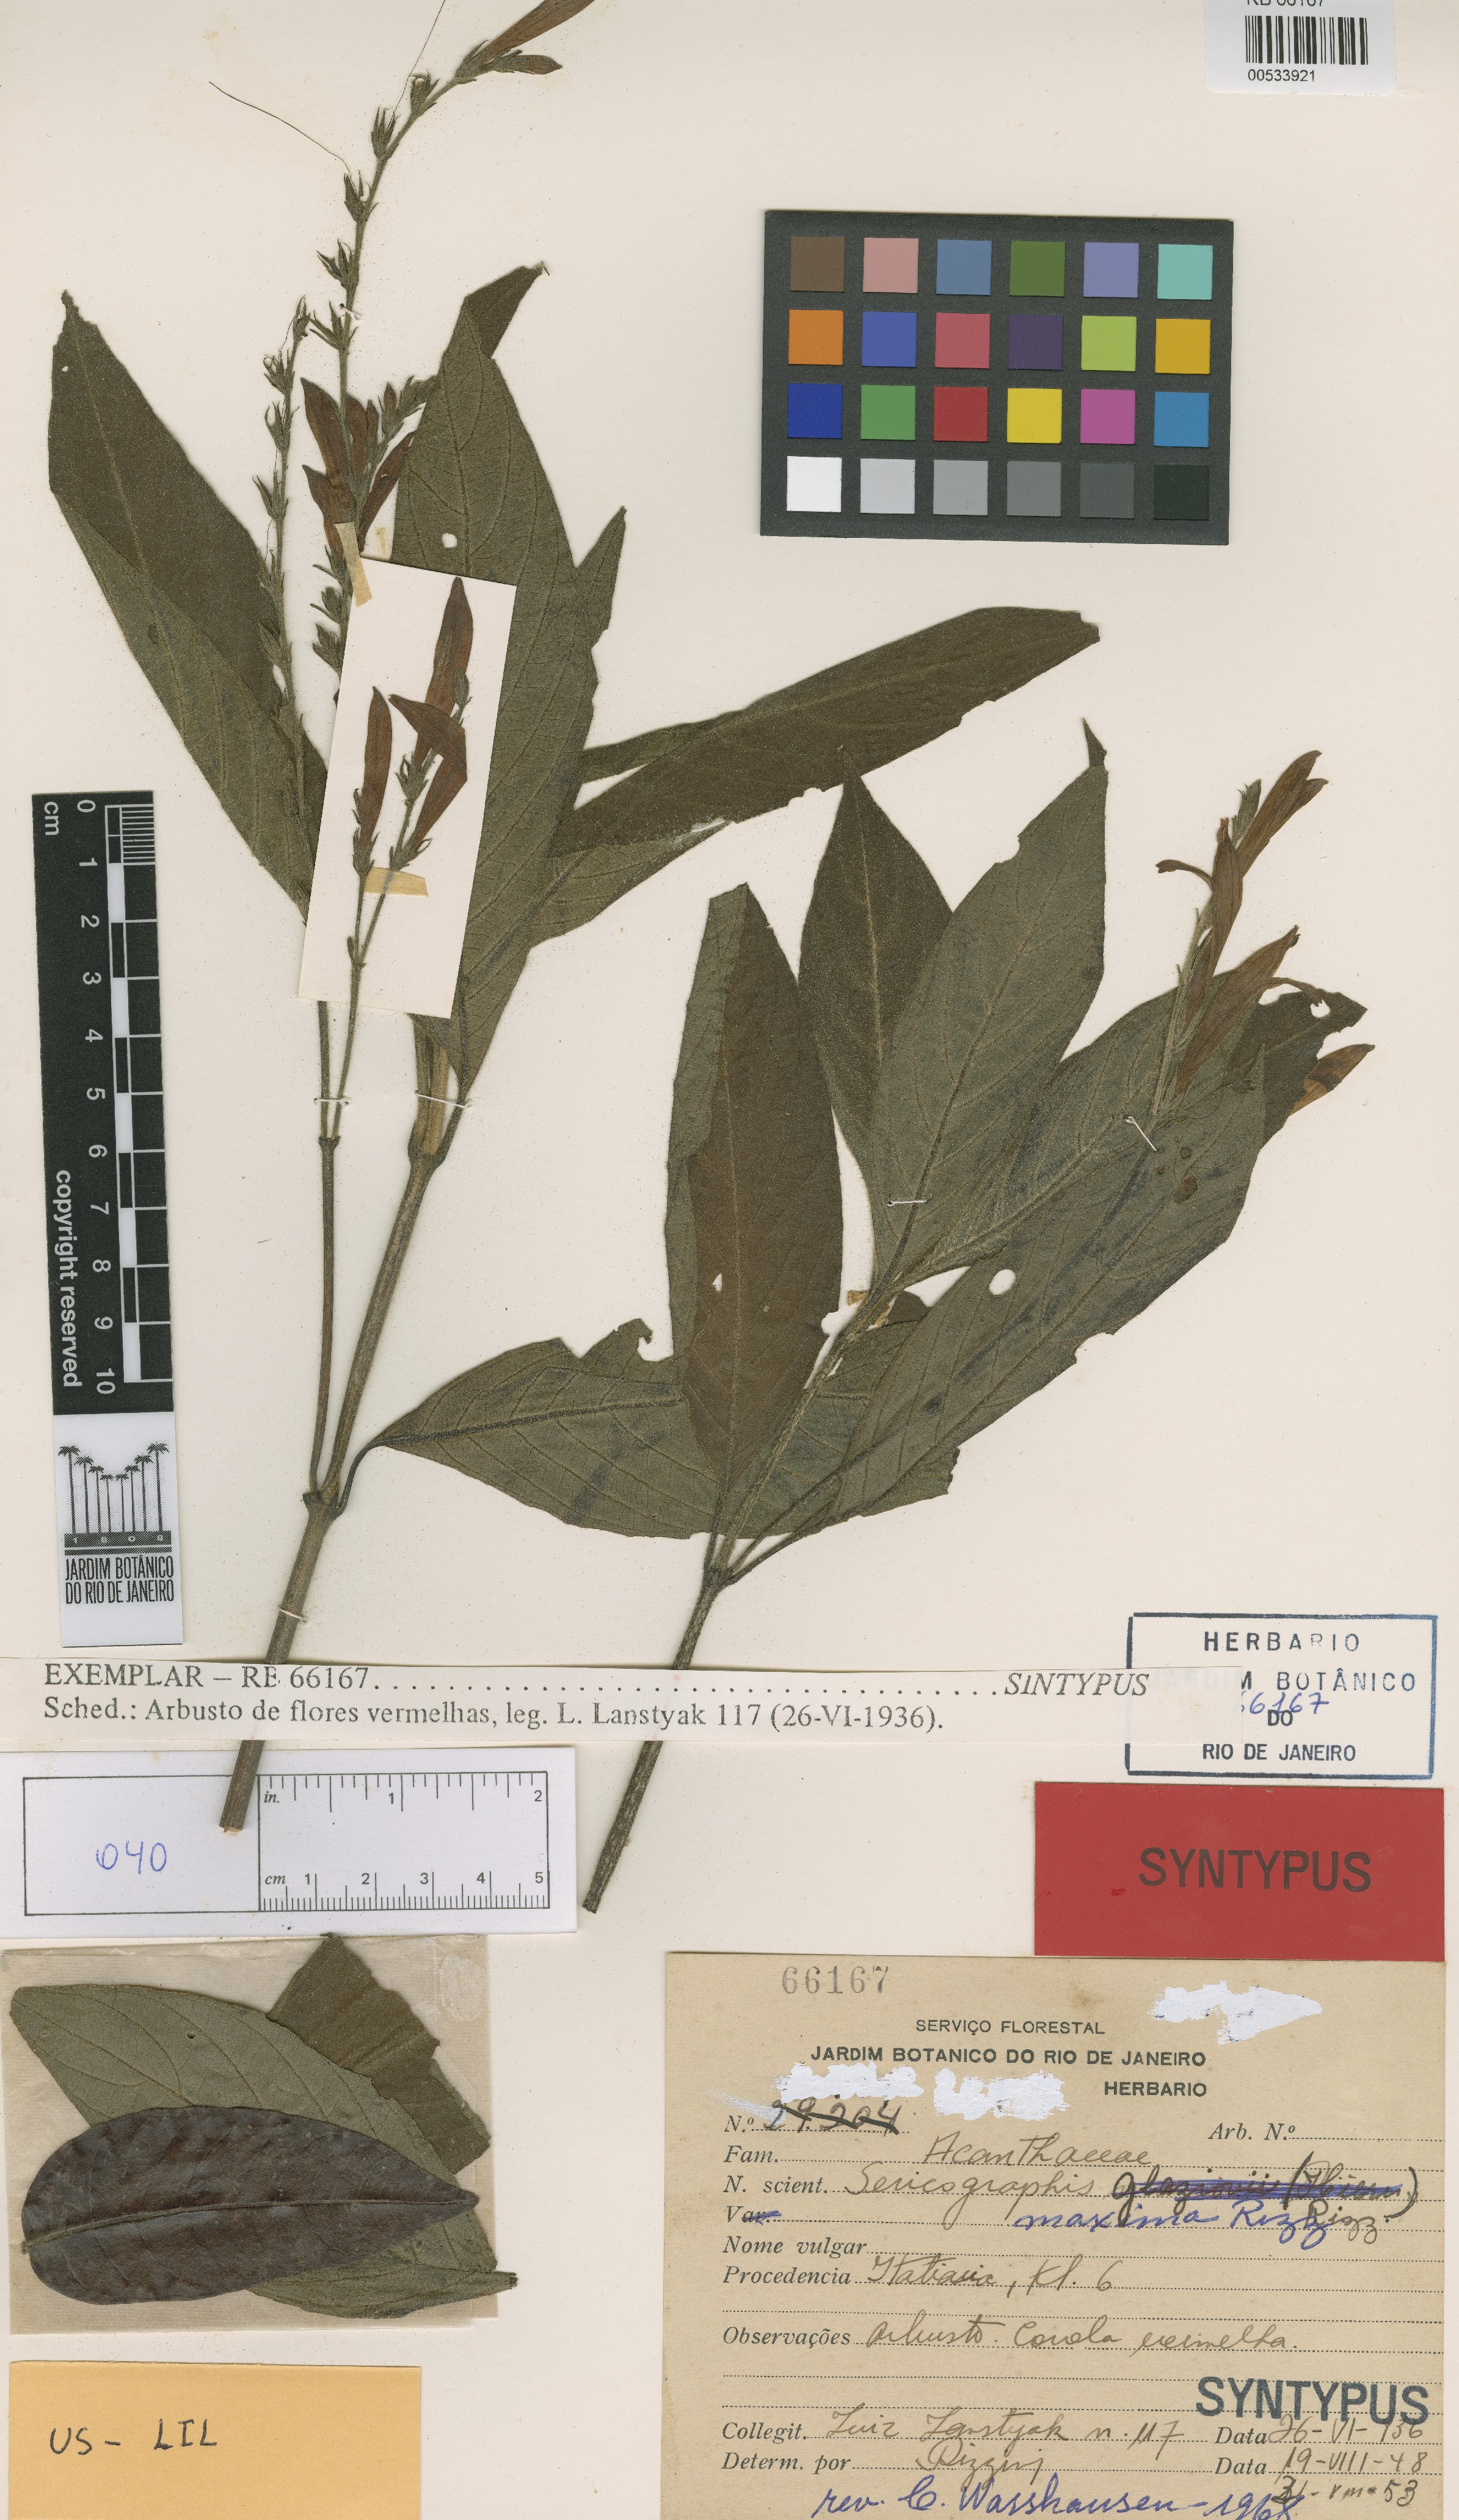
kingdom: Plantae
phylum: Tracheophyta
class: Magnoliopsida
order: Lamiales
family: Acanthaceae
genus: Justicia
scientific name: Justicia sebastianopolitanae
